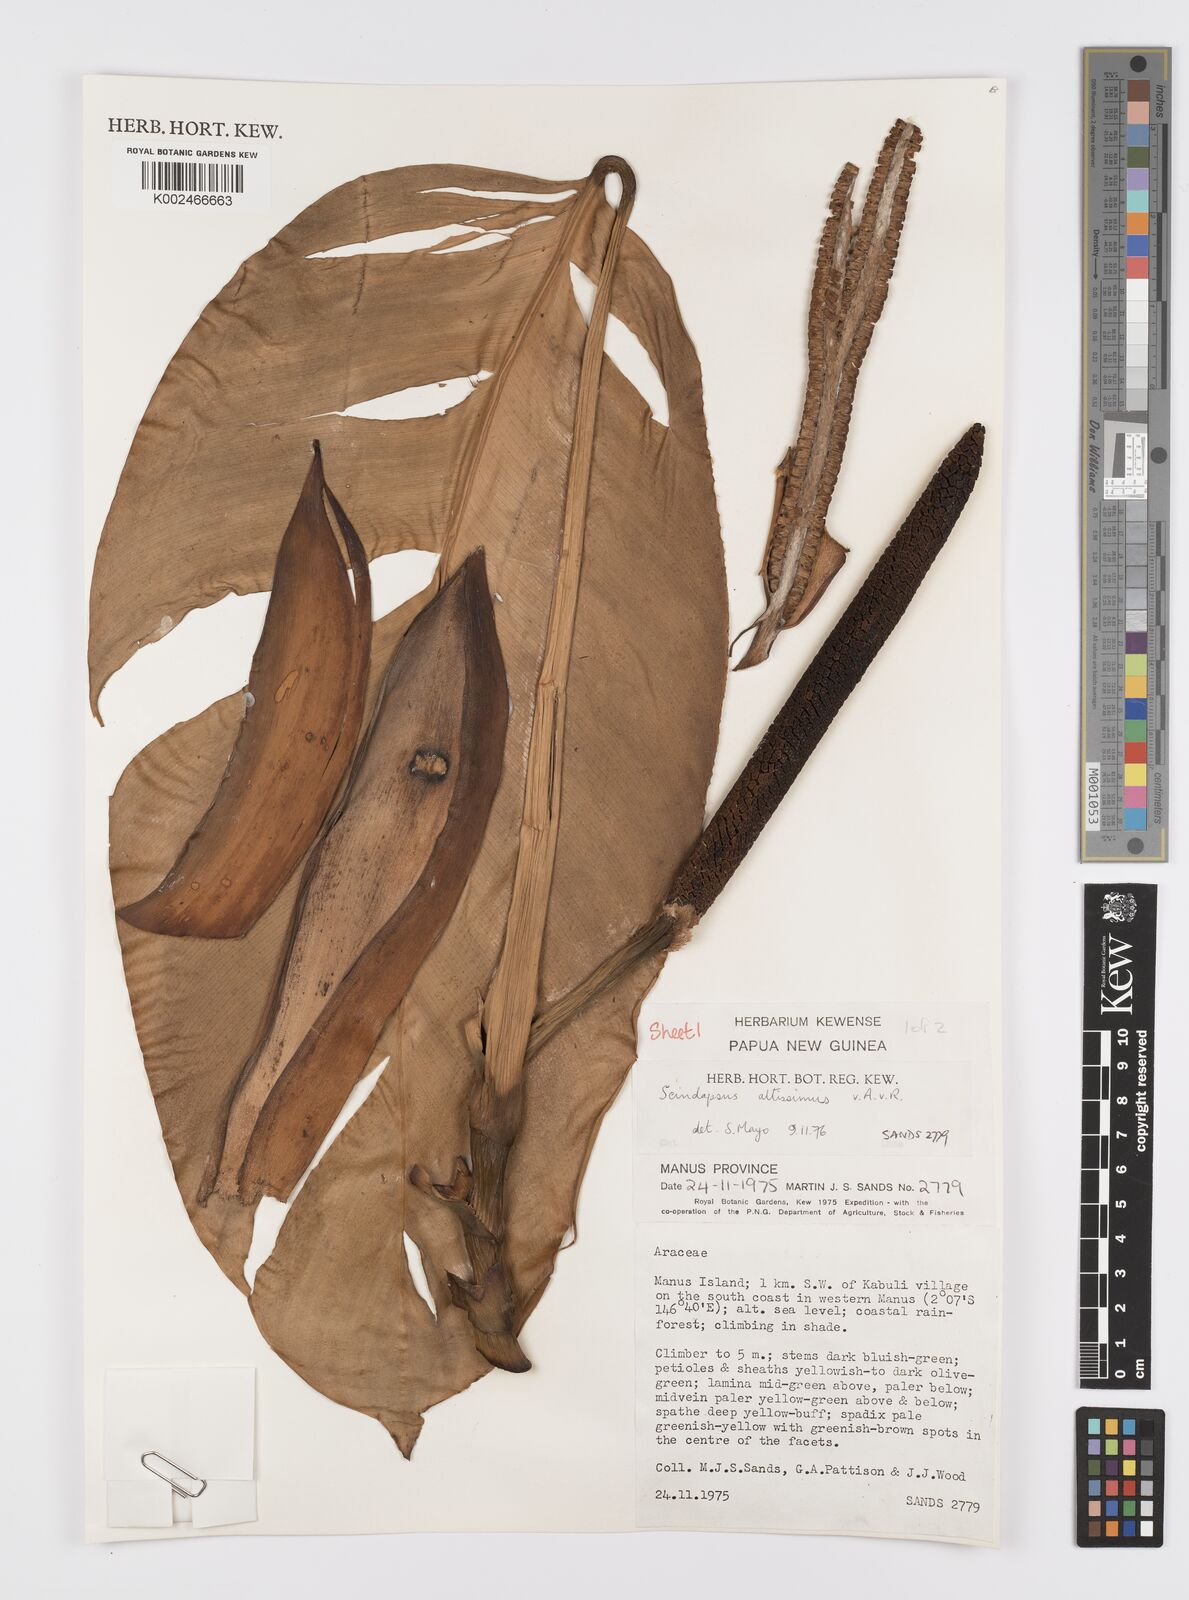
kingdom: Plantae
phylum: Tracheophyta
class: Liliopsida
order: Alismatales
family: Araceae
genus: Scindapsus
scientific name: Scindapsus altissimus
